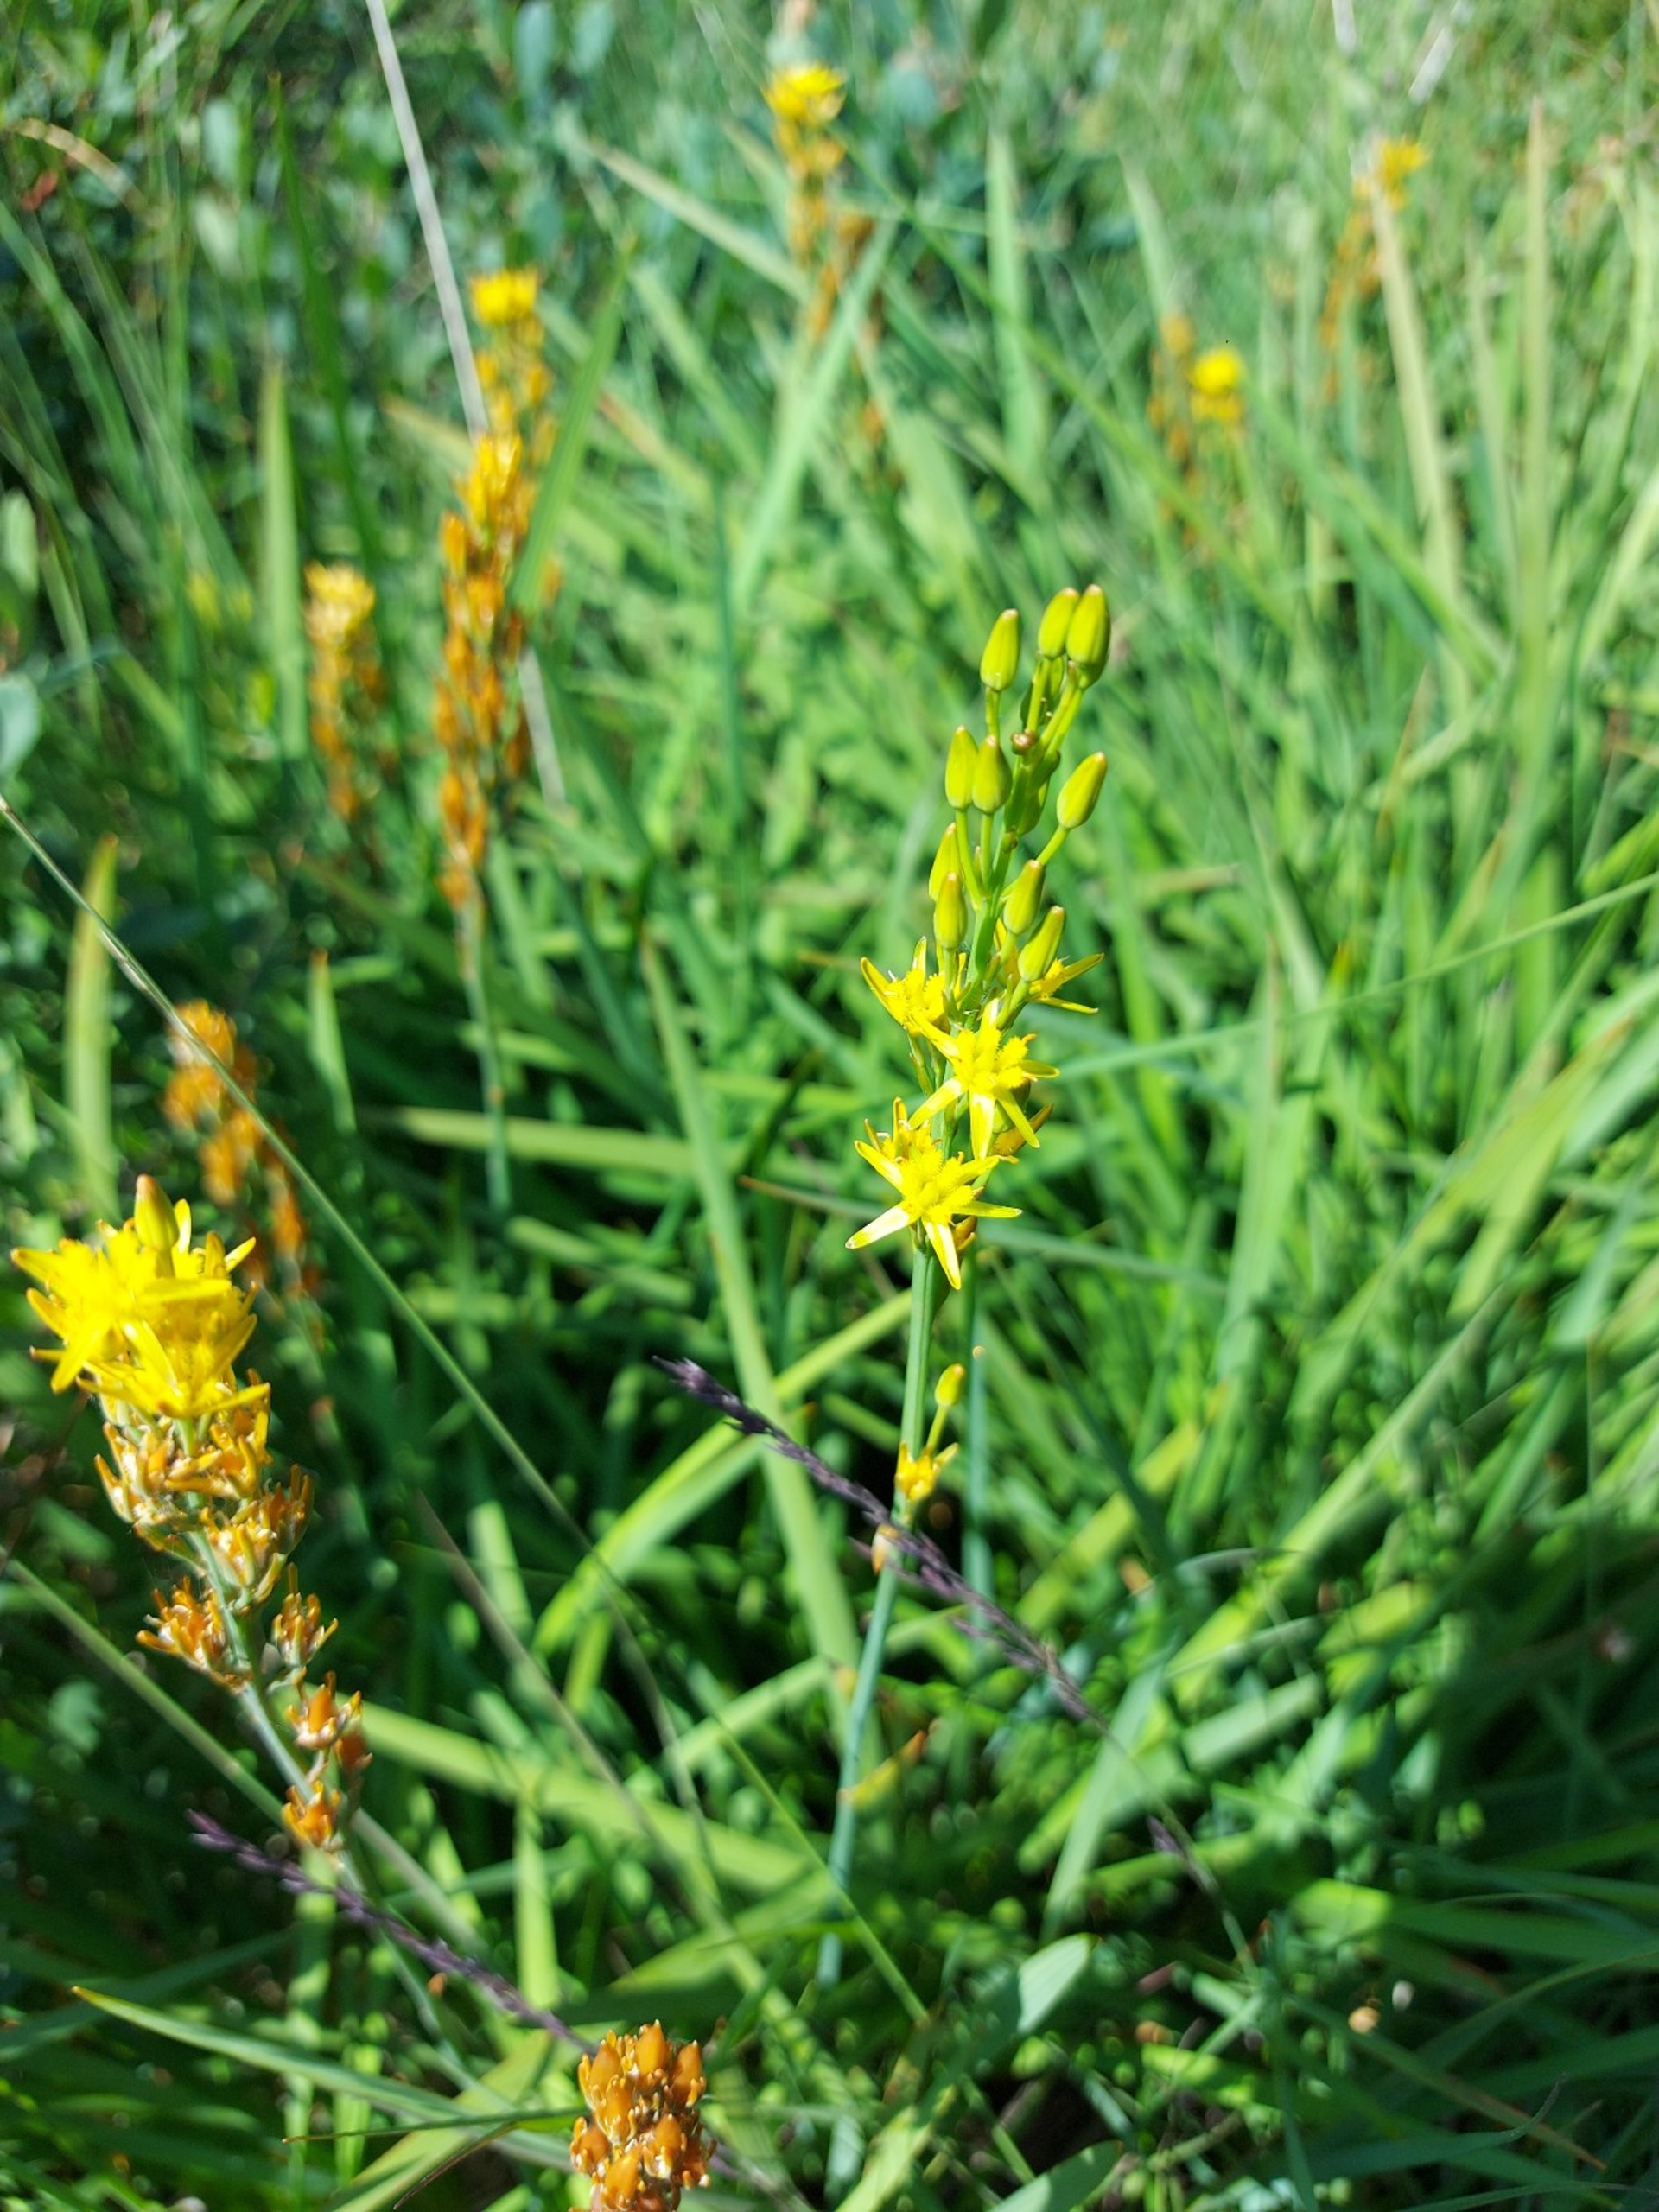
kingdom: Plantae
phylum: Tracheophyta
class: Liliopsida
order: Dioscoreales
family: Nartheciaceae
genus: Narthecium
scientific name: Narthecium ossifragum
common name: Benbræk
